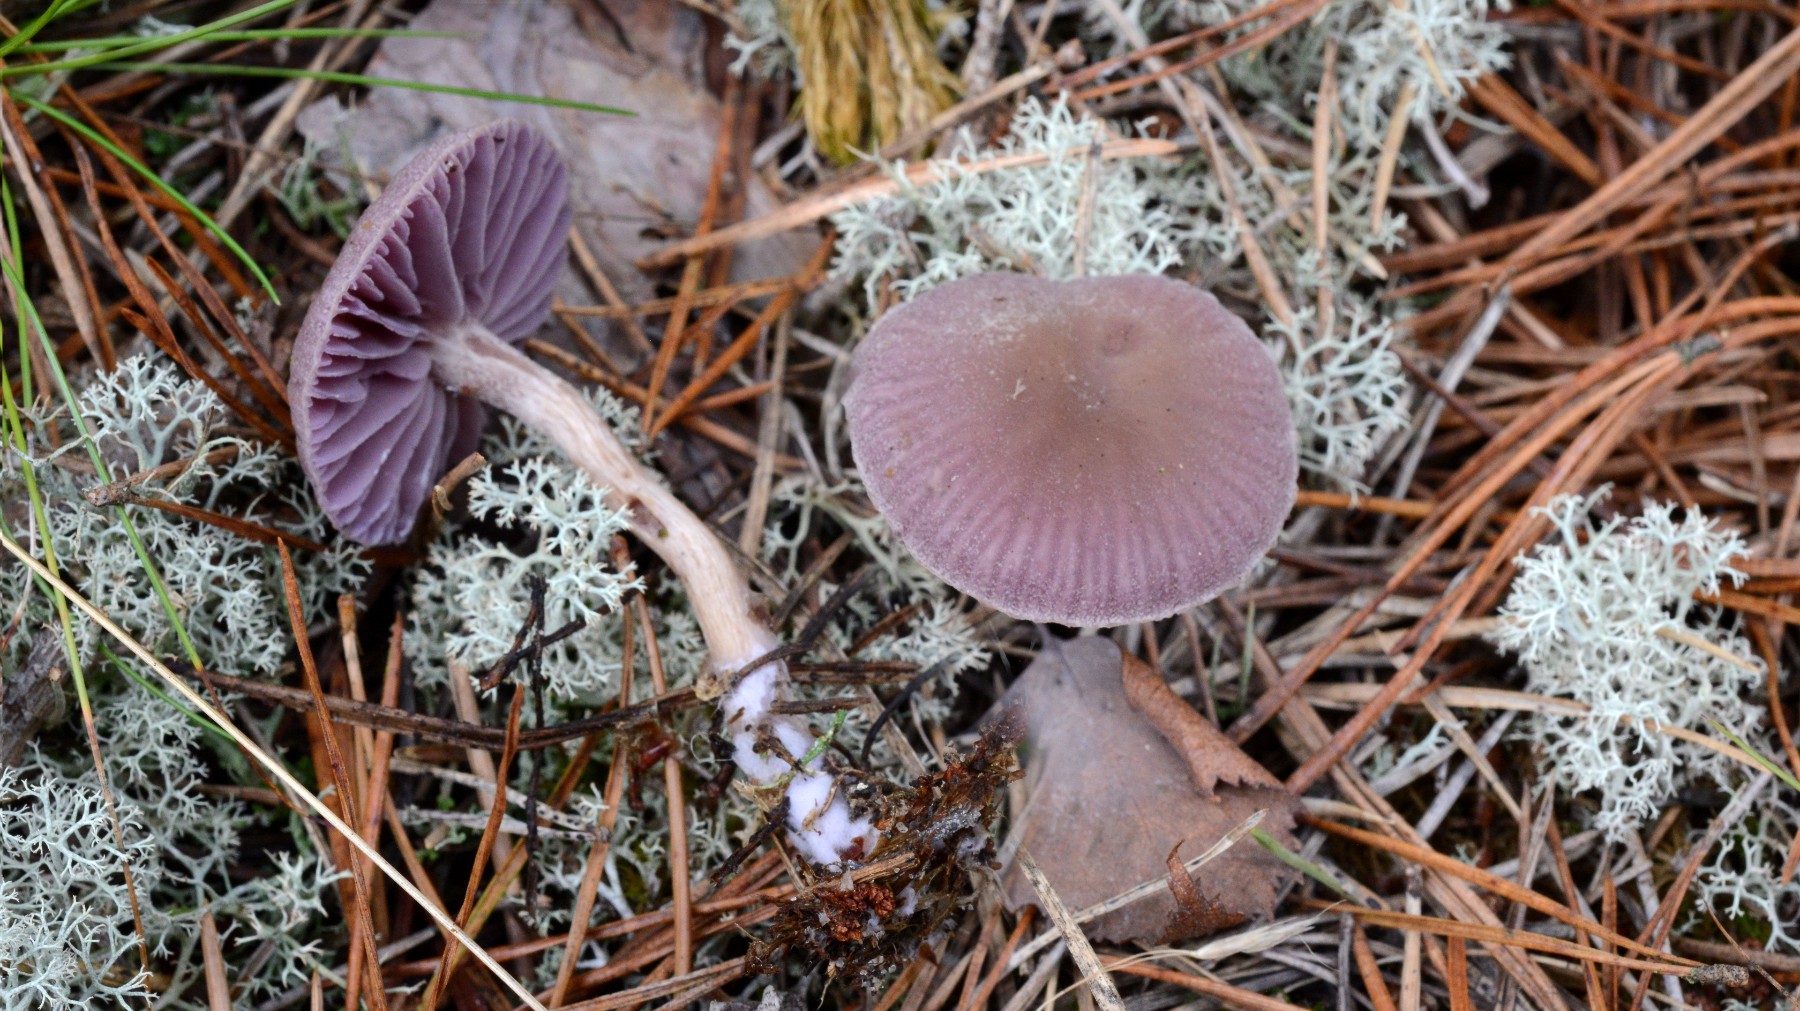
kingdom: Fungi
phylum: Basidiomycota
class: Agaricomycetes
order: Agaricales
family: Hydnangiaceae
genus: Laccaria
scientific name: Laccaria amethystina
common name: violet ametysthat
